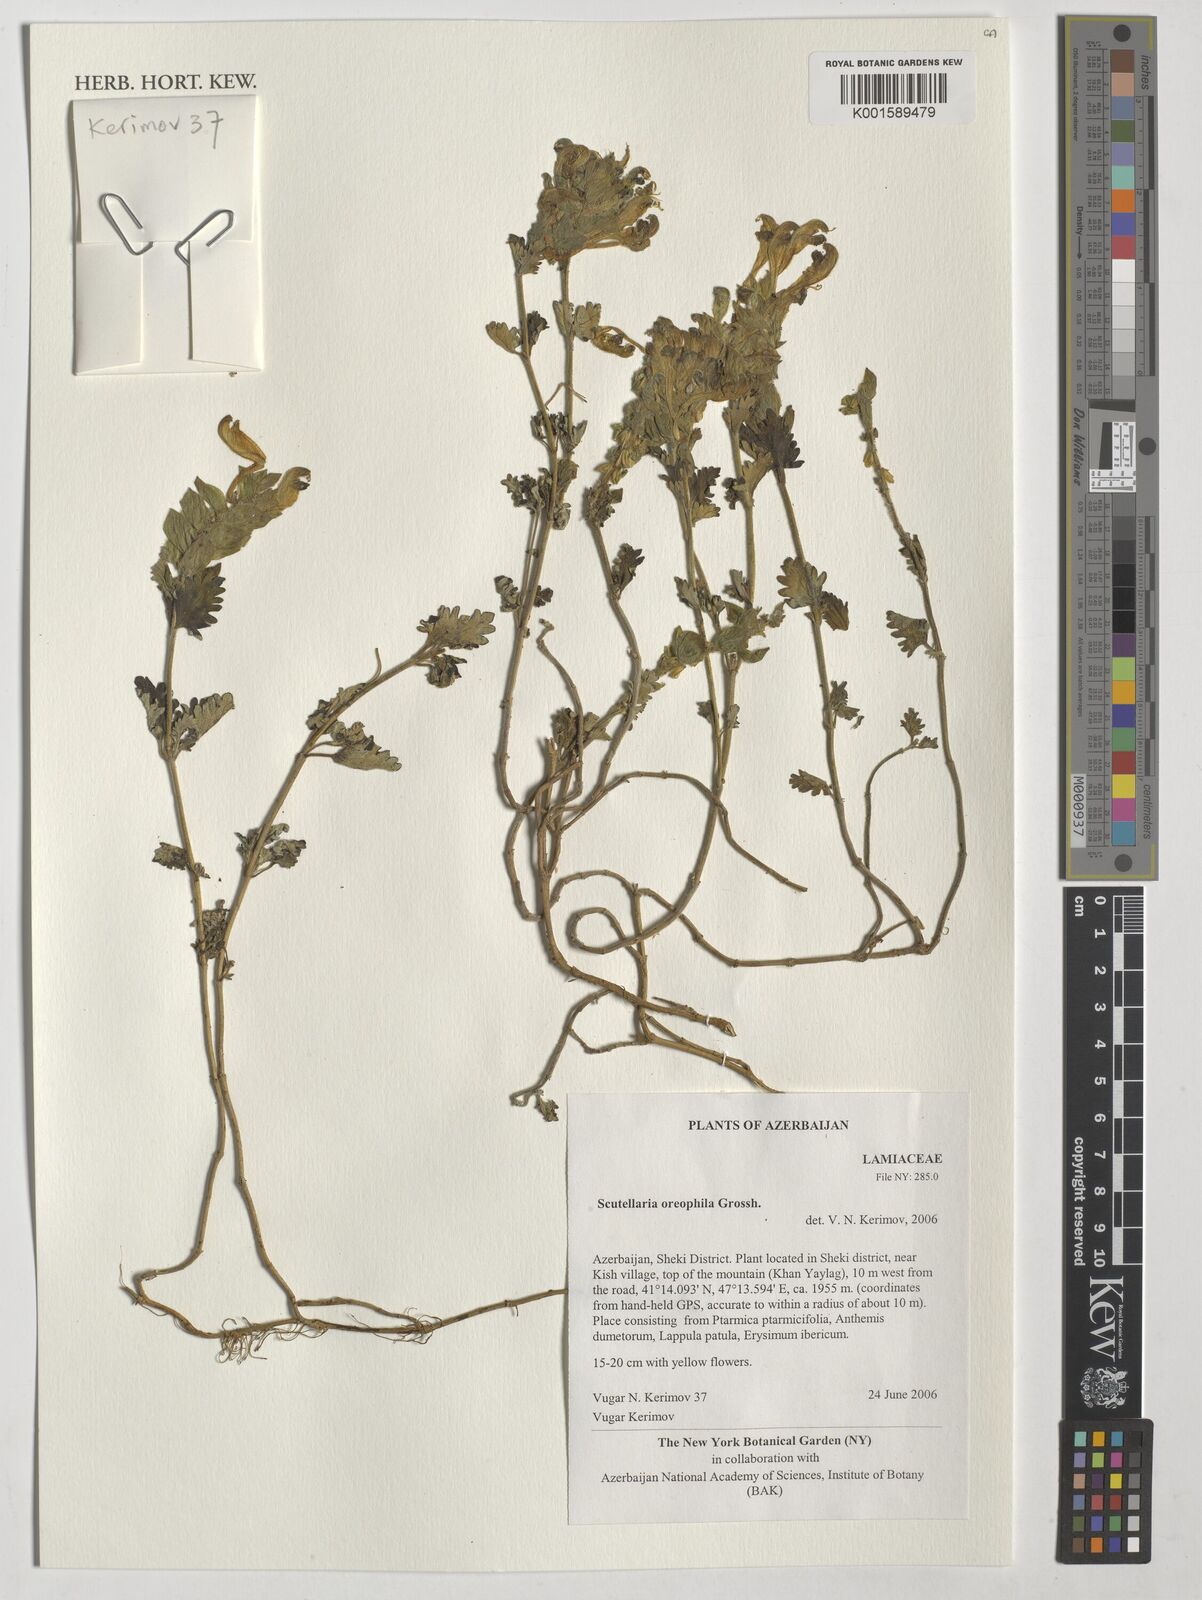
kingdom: Plantae
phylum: Tracheophyta
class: Magnoliopsida
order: Lamiales
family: Lamiaceae
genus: Scutellaria
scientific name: Scutellaria oreophila
